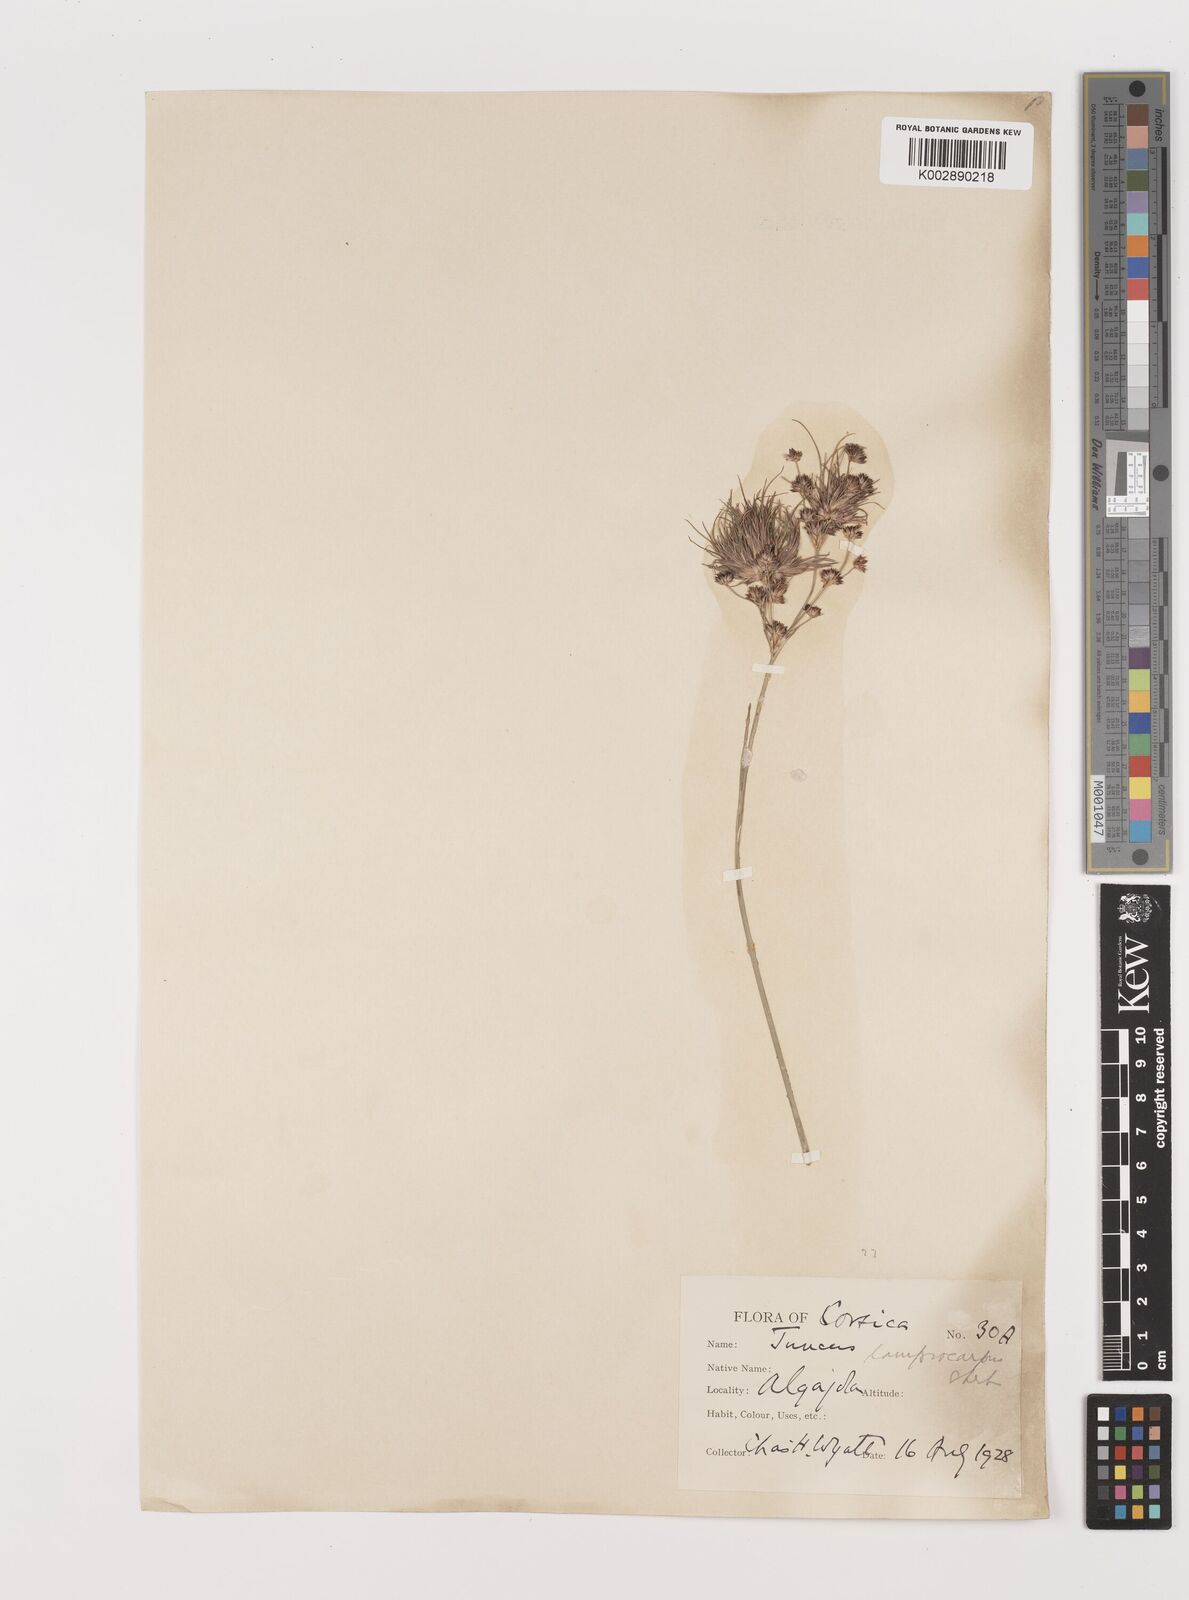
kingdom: Plantae
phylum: Tracheophyta
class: Liliopsida
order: Poales
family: Juncaceae
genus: Juncus
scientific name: Juncus articulatus
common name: Jointed rush
